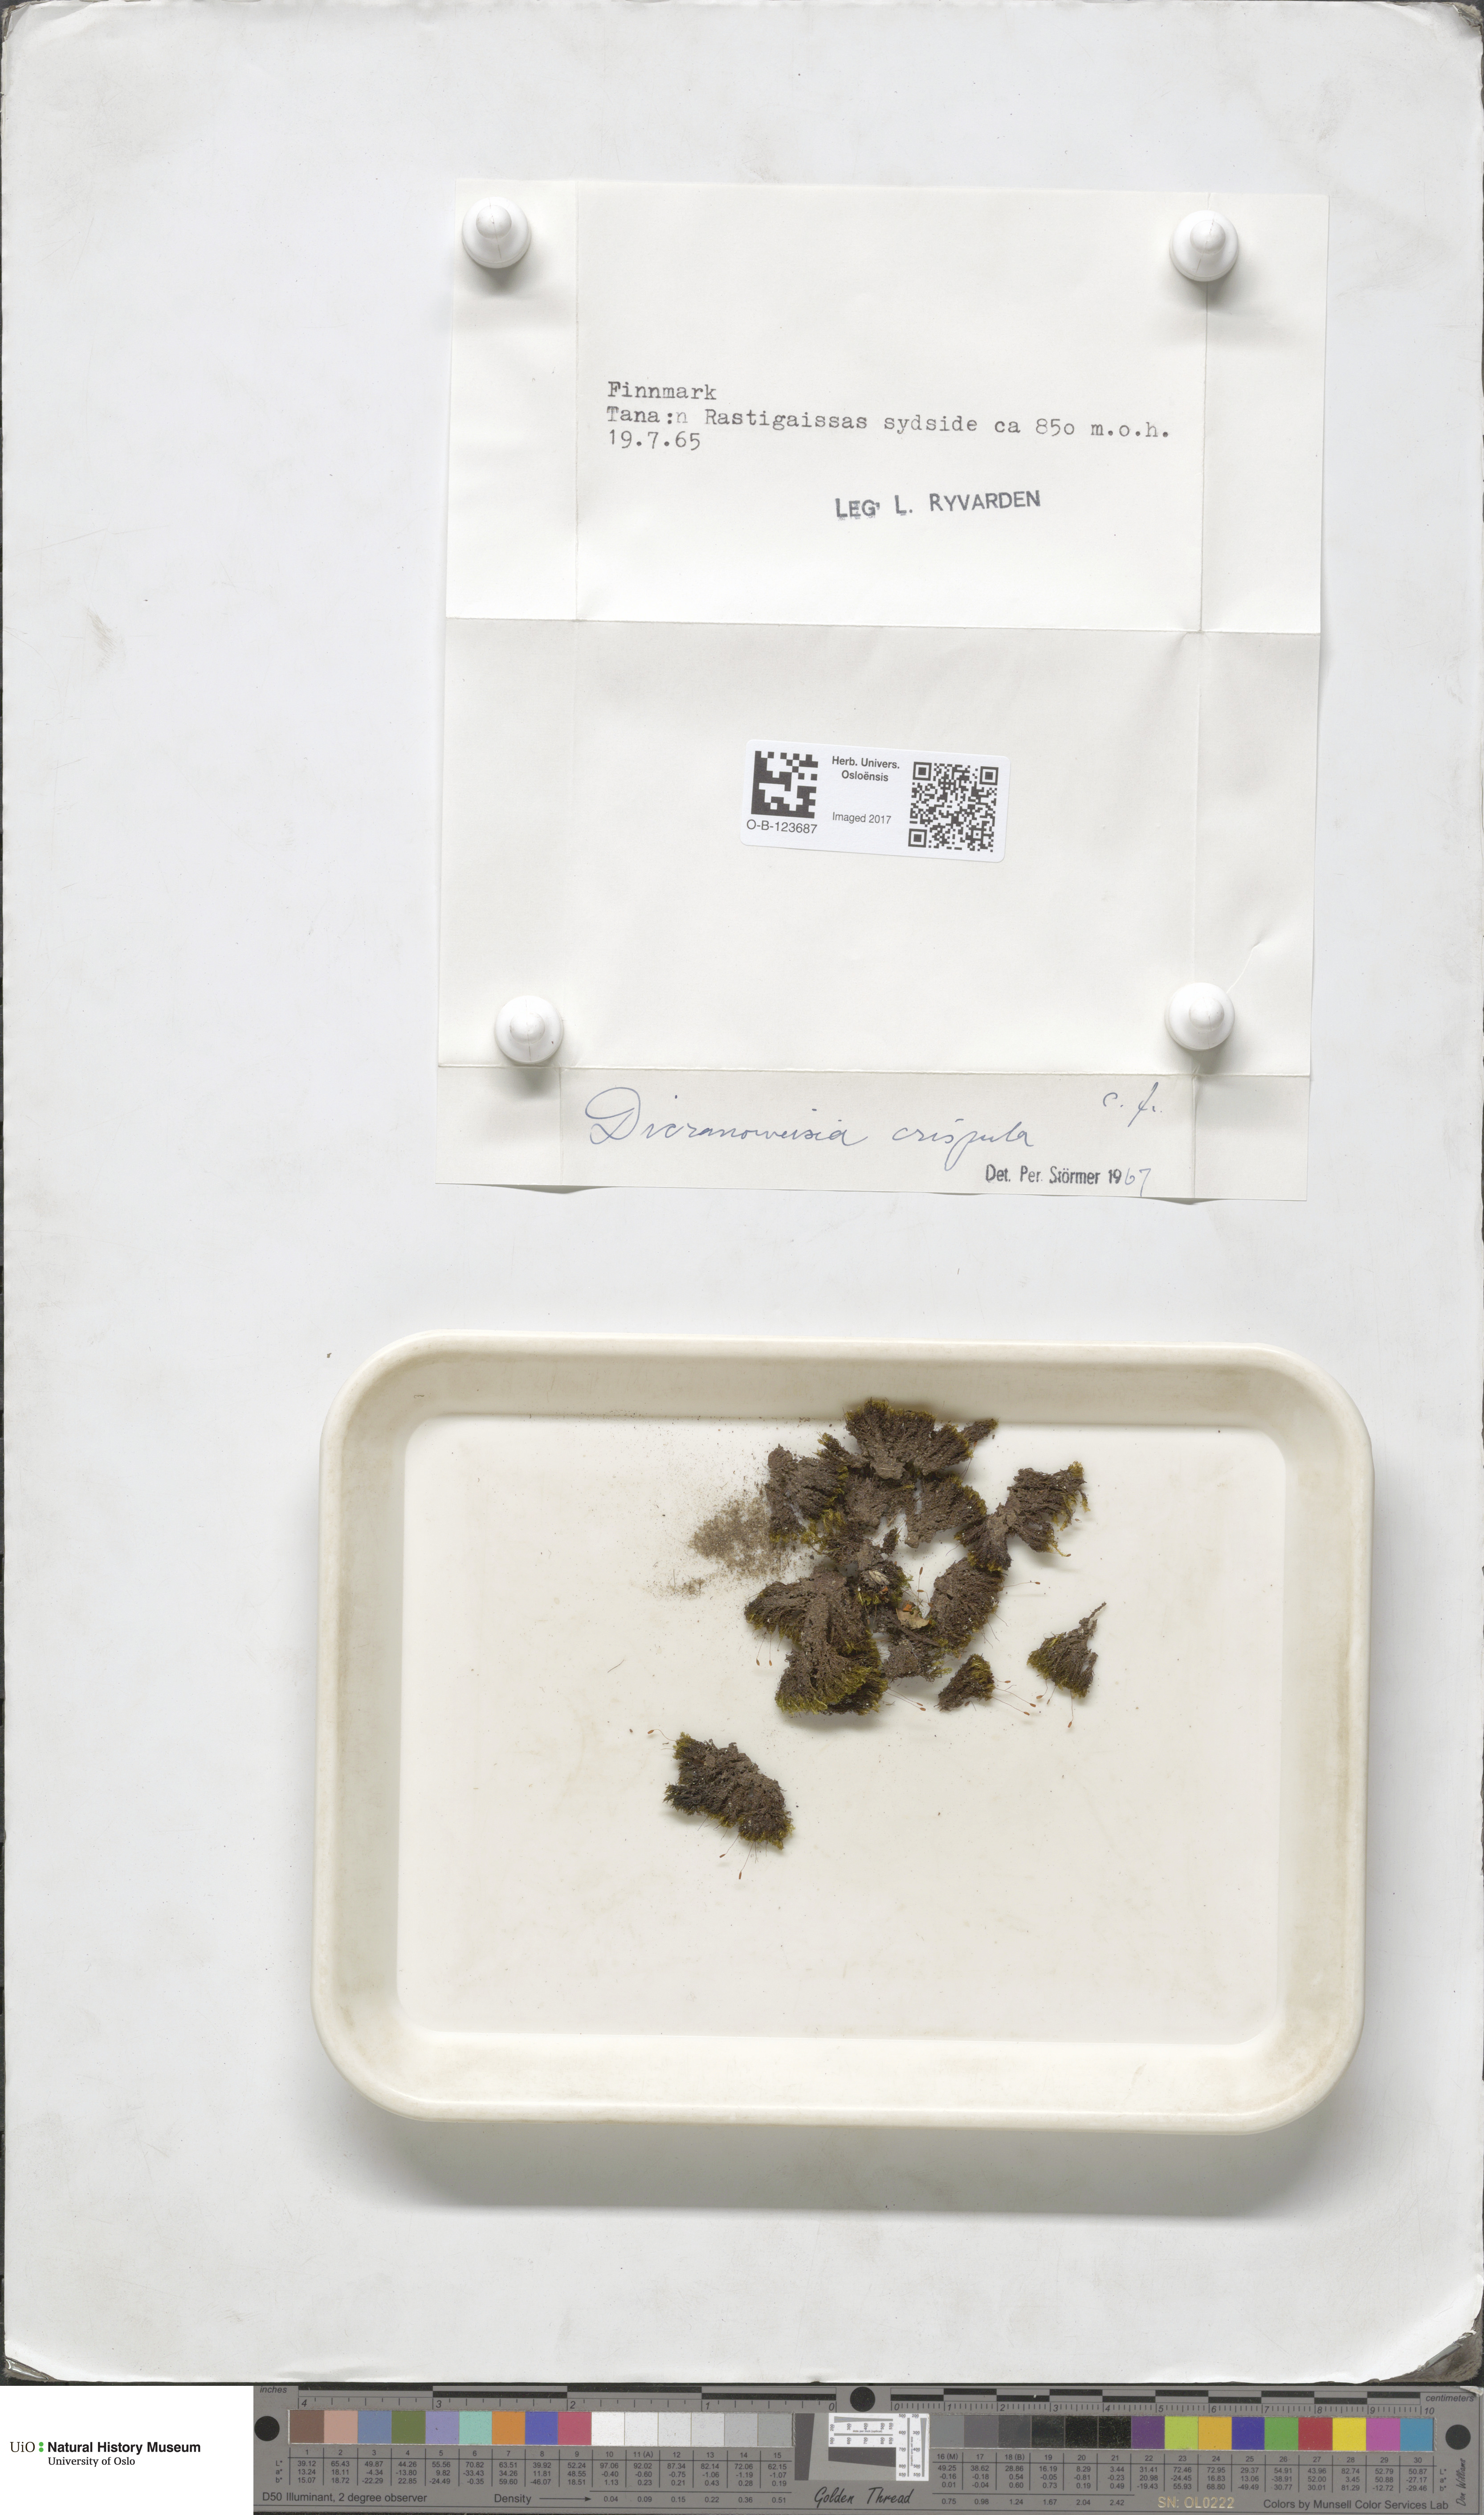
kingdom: Plantae
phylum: Bryophyta
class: Bryopsida
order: Scouleriales
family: Hymenolomataceae
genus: Hymenoloma
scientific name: Hymenoloma crispulum
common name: Mountain pincushion
